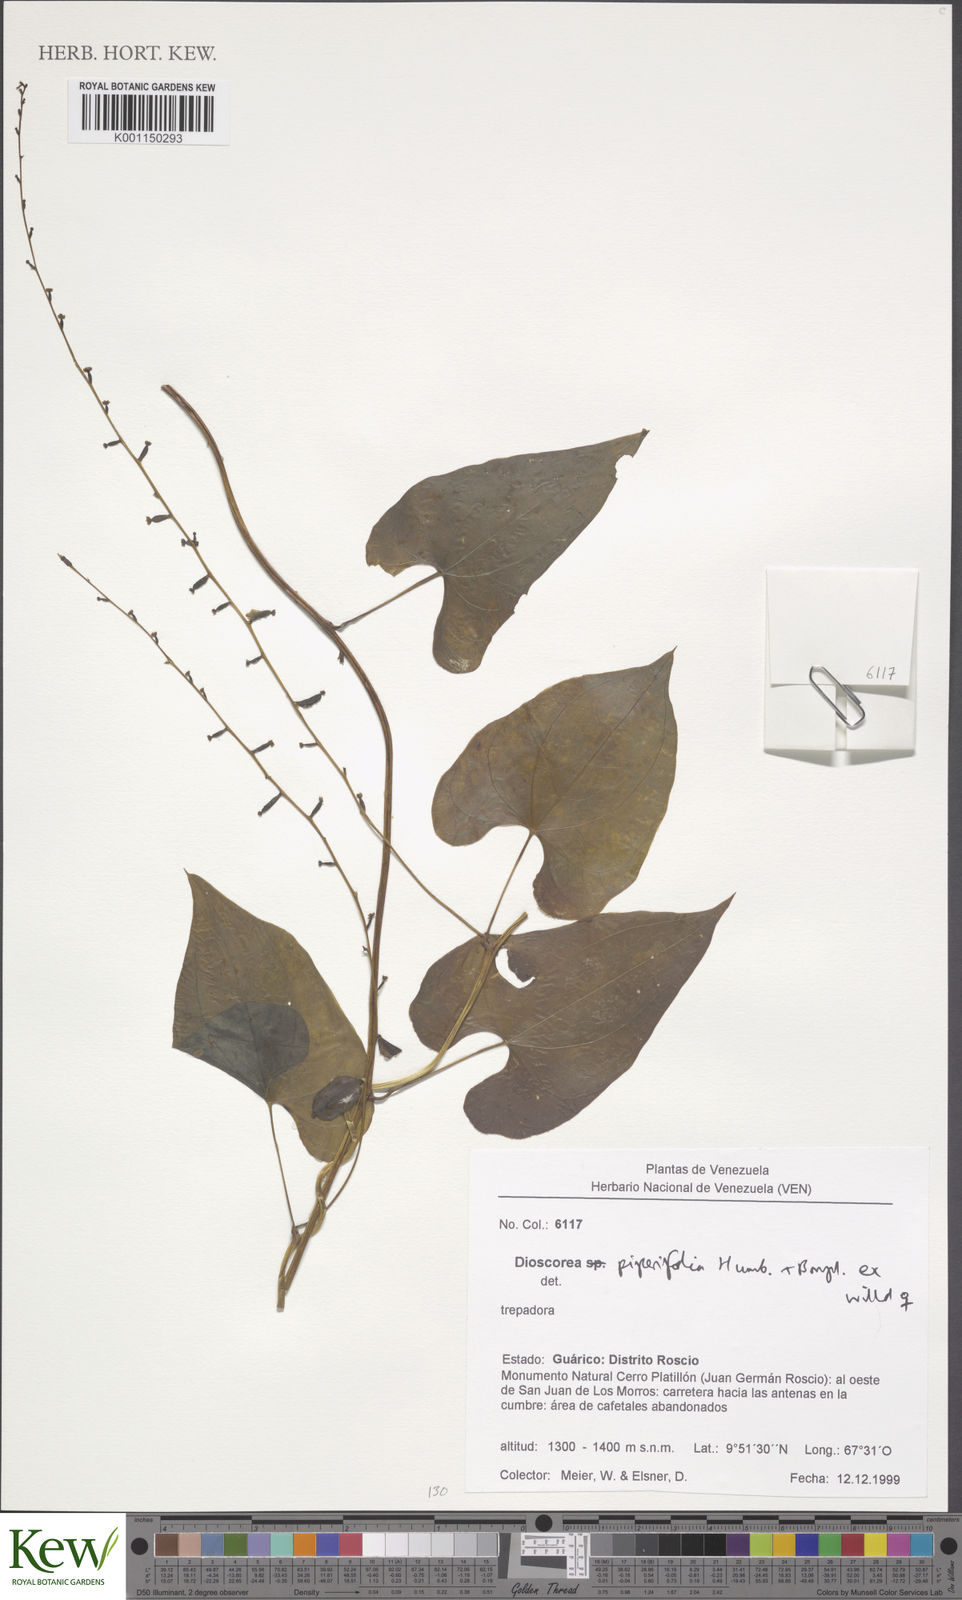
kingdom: Plantae
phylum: Tracheophyta
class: Liliopsida
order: Dioscoreales
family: Dioscoreaceae
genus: Dioscorea
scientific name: Dioscorea piperifolia
